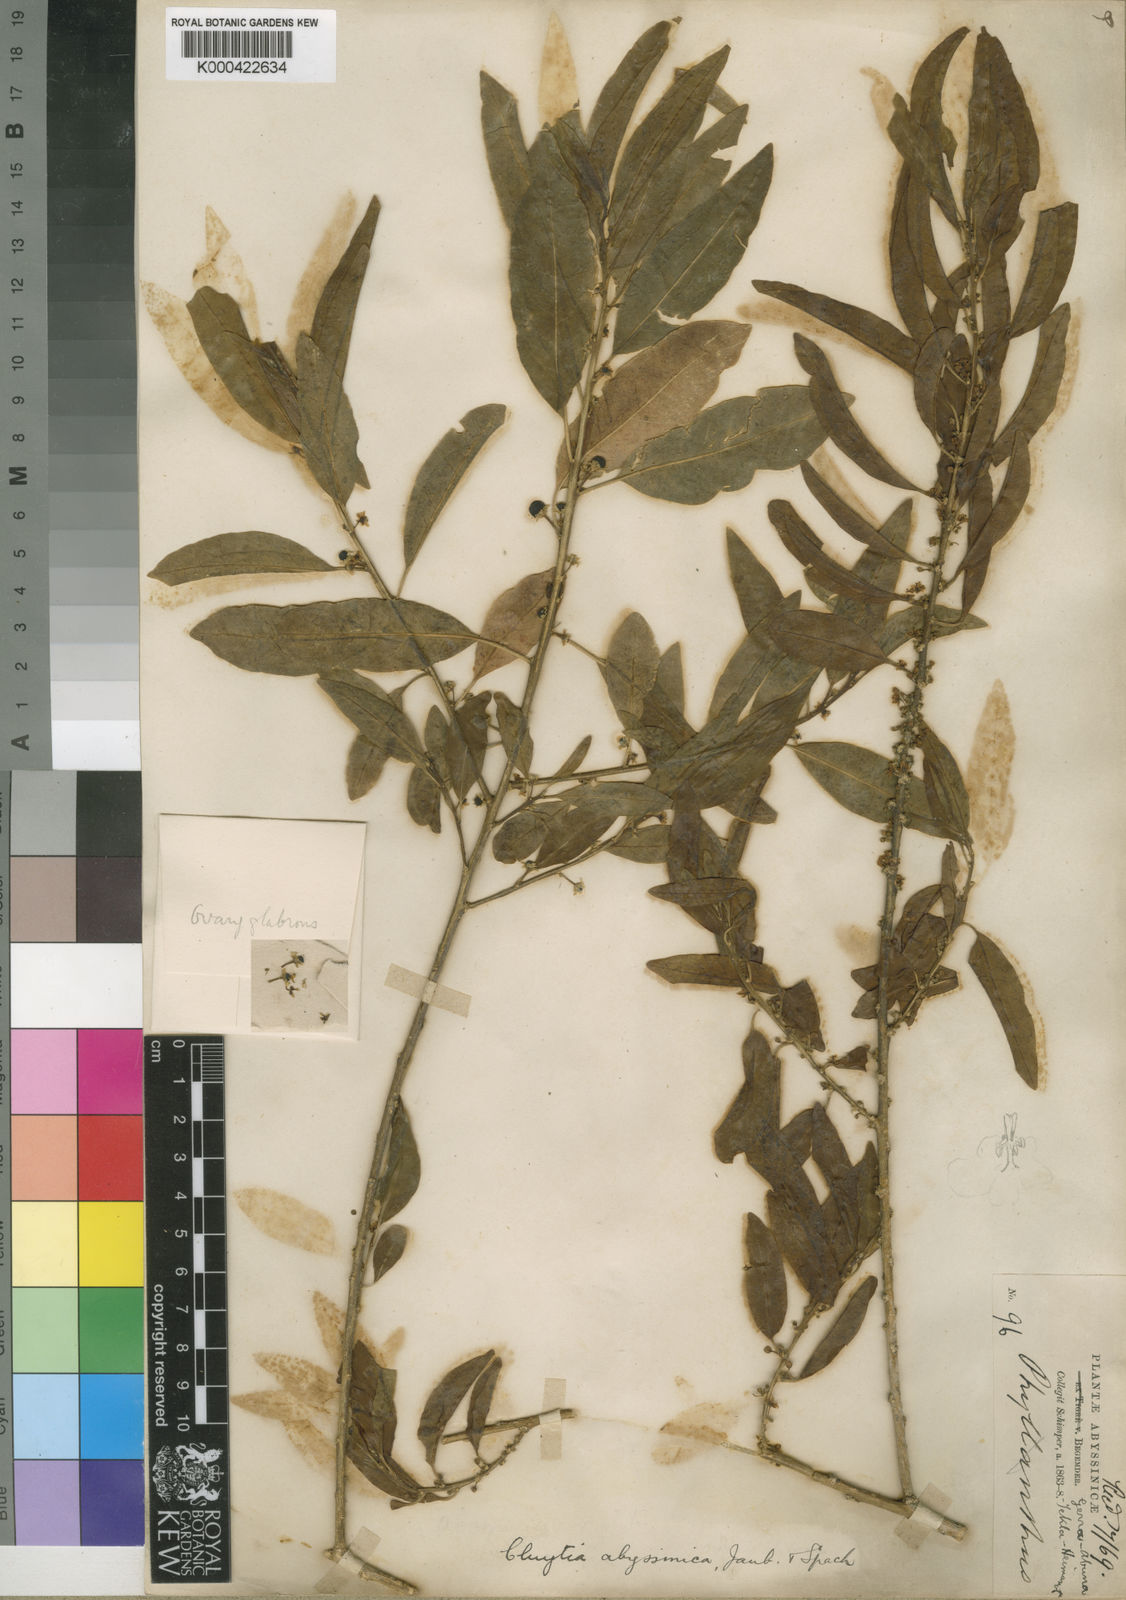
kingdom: Plantae
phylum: Tracheophyta
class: Magnoliopsida
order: Malpighiales
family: Peraceae
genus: Clutia
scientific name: Clutia abyssinica
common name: Large lightning bush
